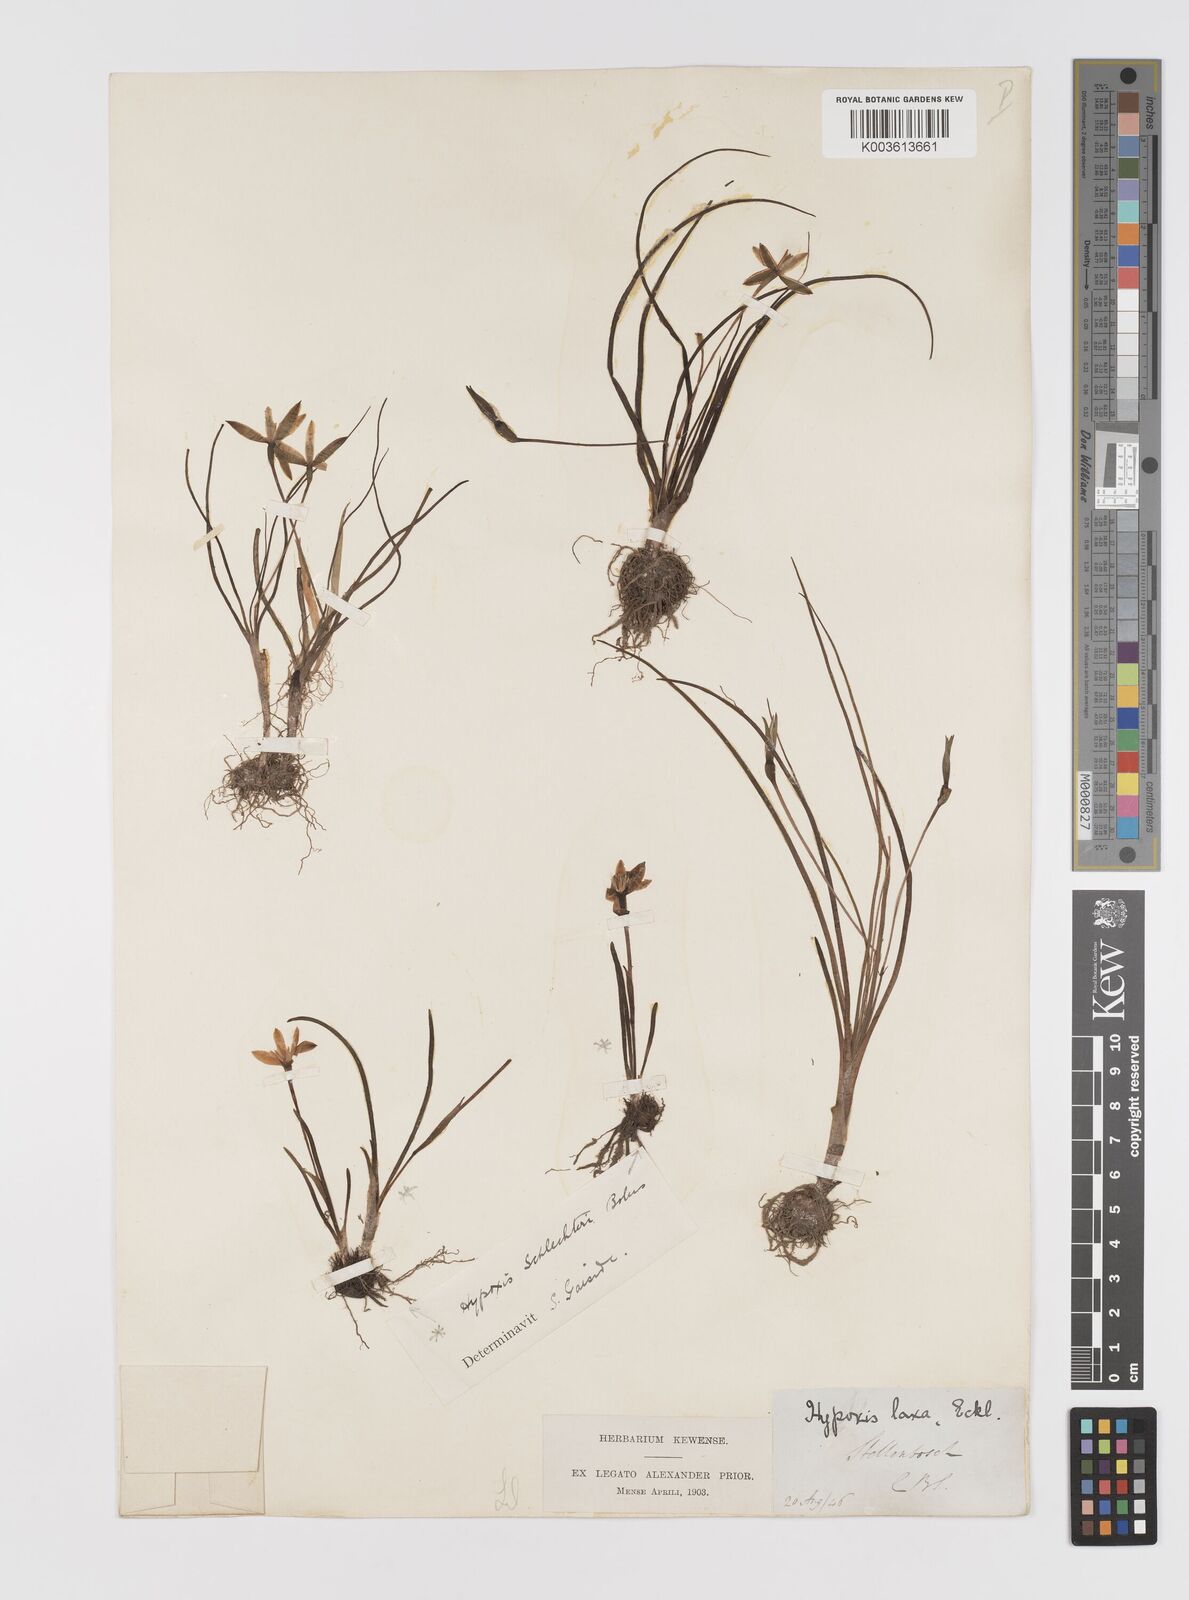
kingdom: Plantae
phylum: Tracheophyta
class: Liliopsida
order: Asparagales
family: Hypoxidaceae
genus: Pauridia
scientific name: Pauridia
